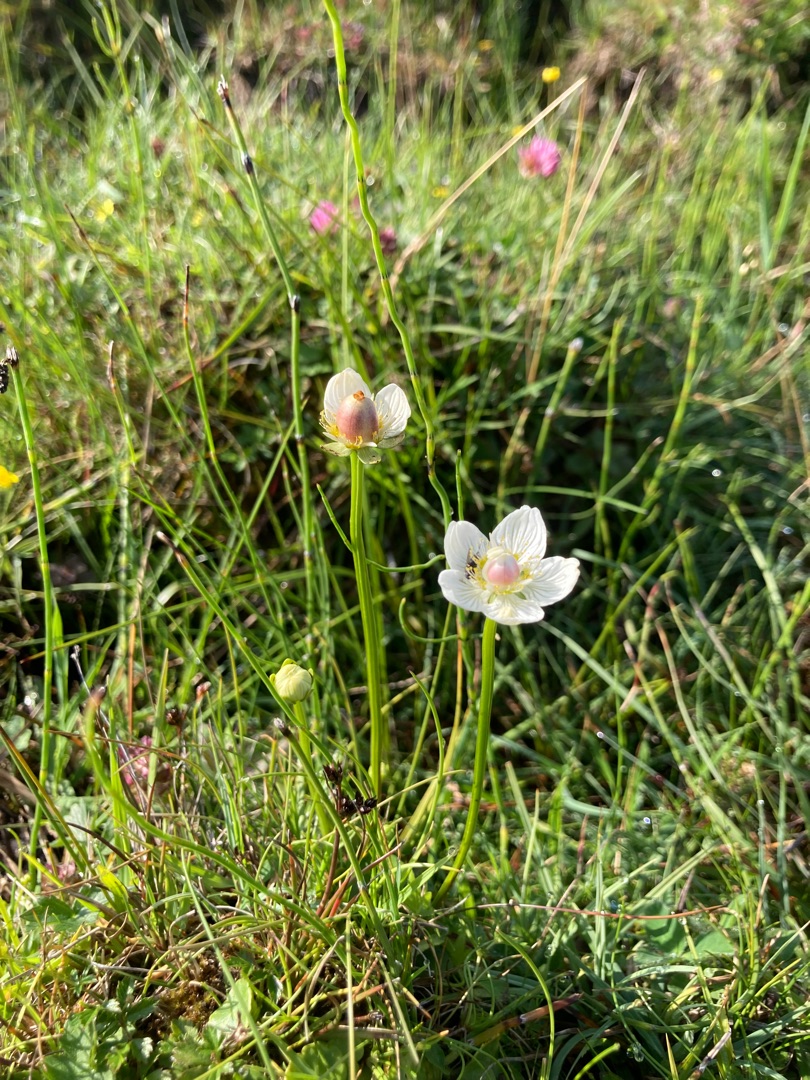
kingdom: Plantae
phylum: Tracheophyta
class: Magnoliopsida
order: Celastrales
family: Parnassiaceae
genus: Parnassia
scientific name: Parnassia palustris
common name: Leverurt
